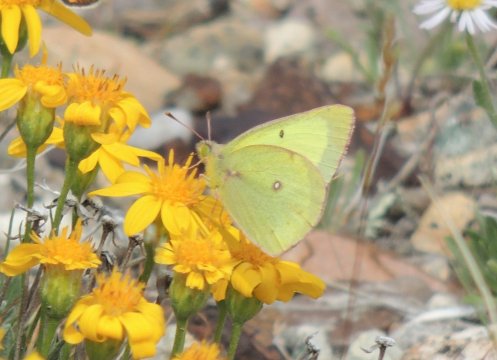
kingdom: Animalia
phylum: Arthropoda
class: Insecta
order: Lepidoptera
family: Pieridae
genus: Colias
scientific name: Colias eurytheme
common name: Orange Sulphur
